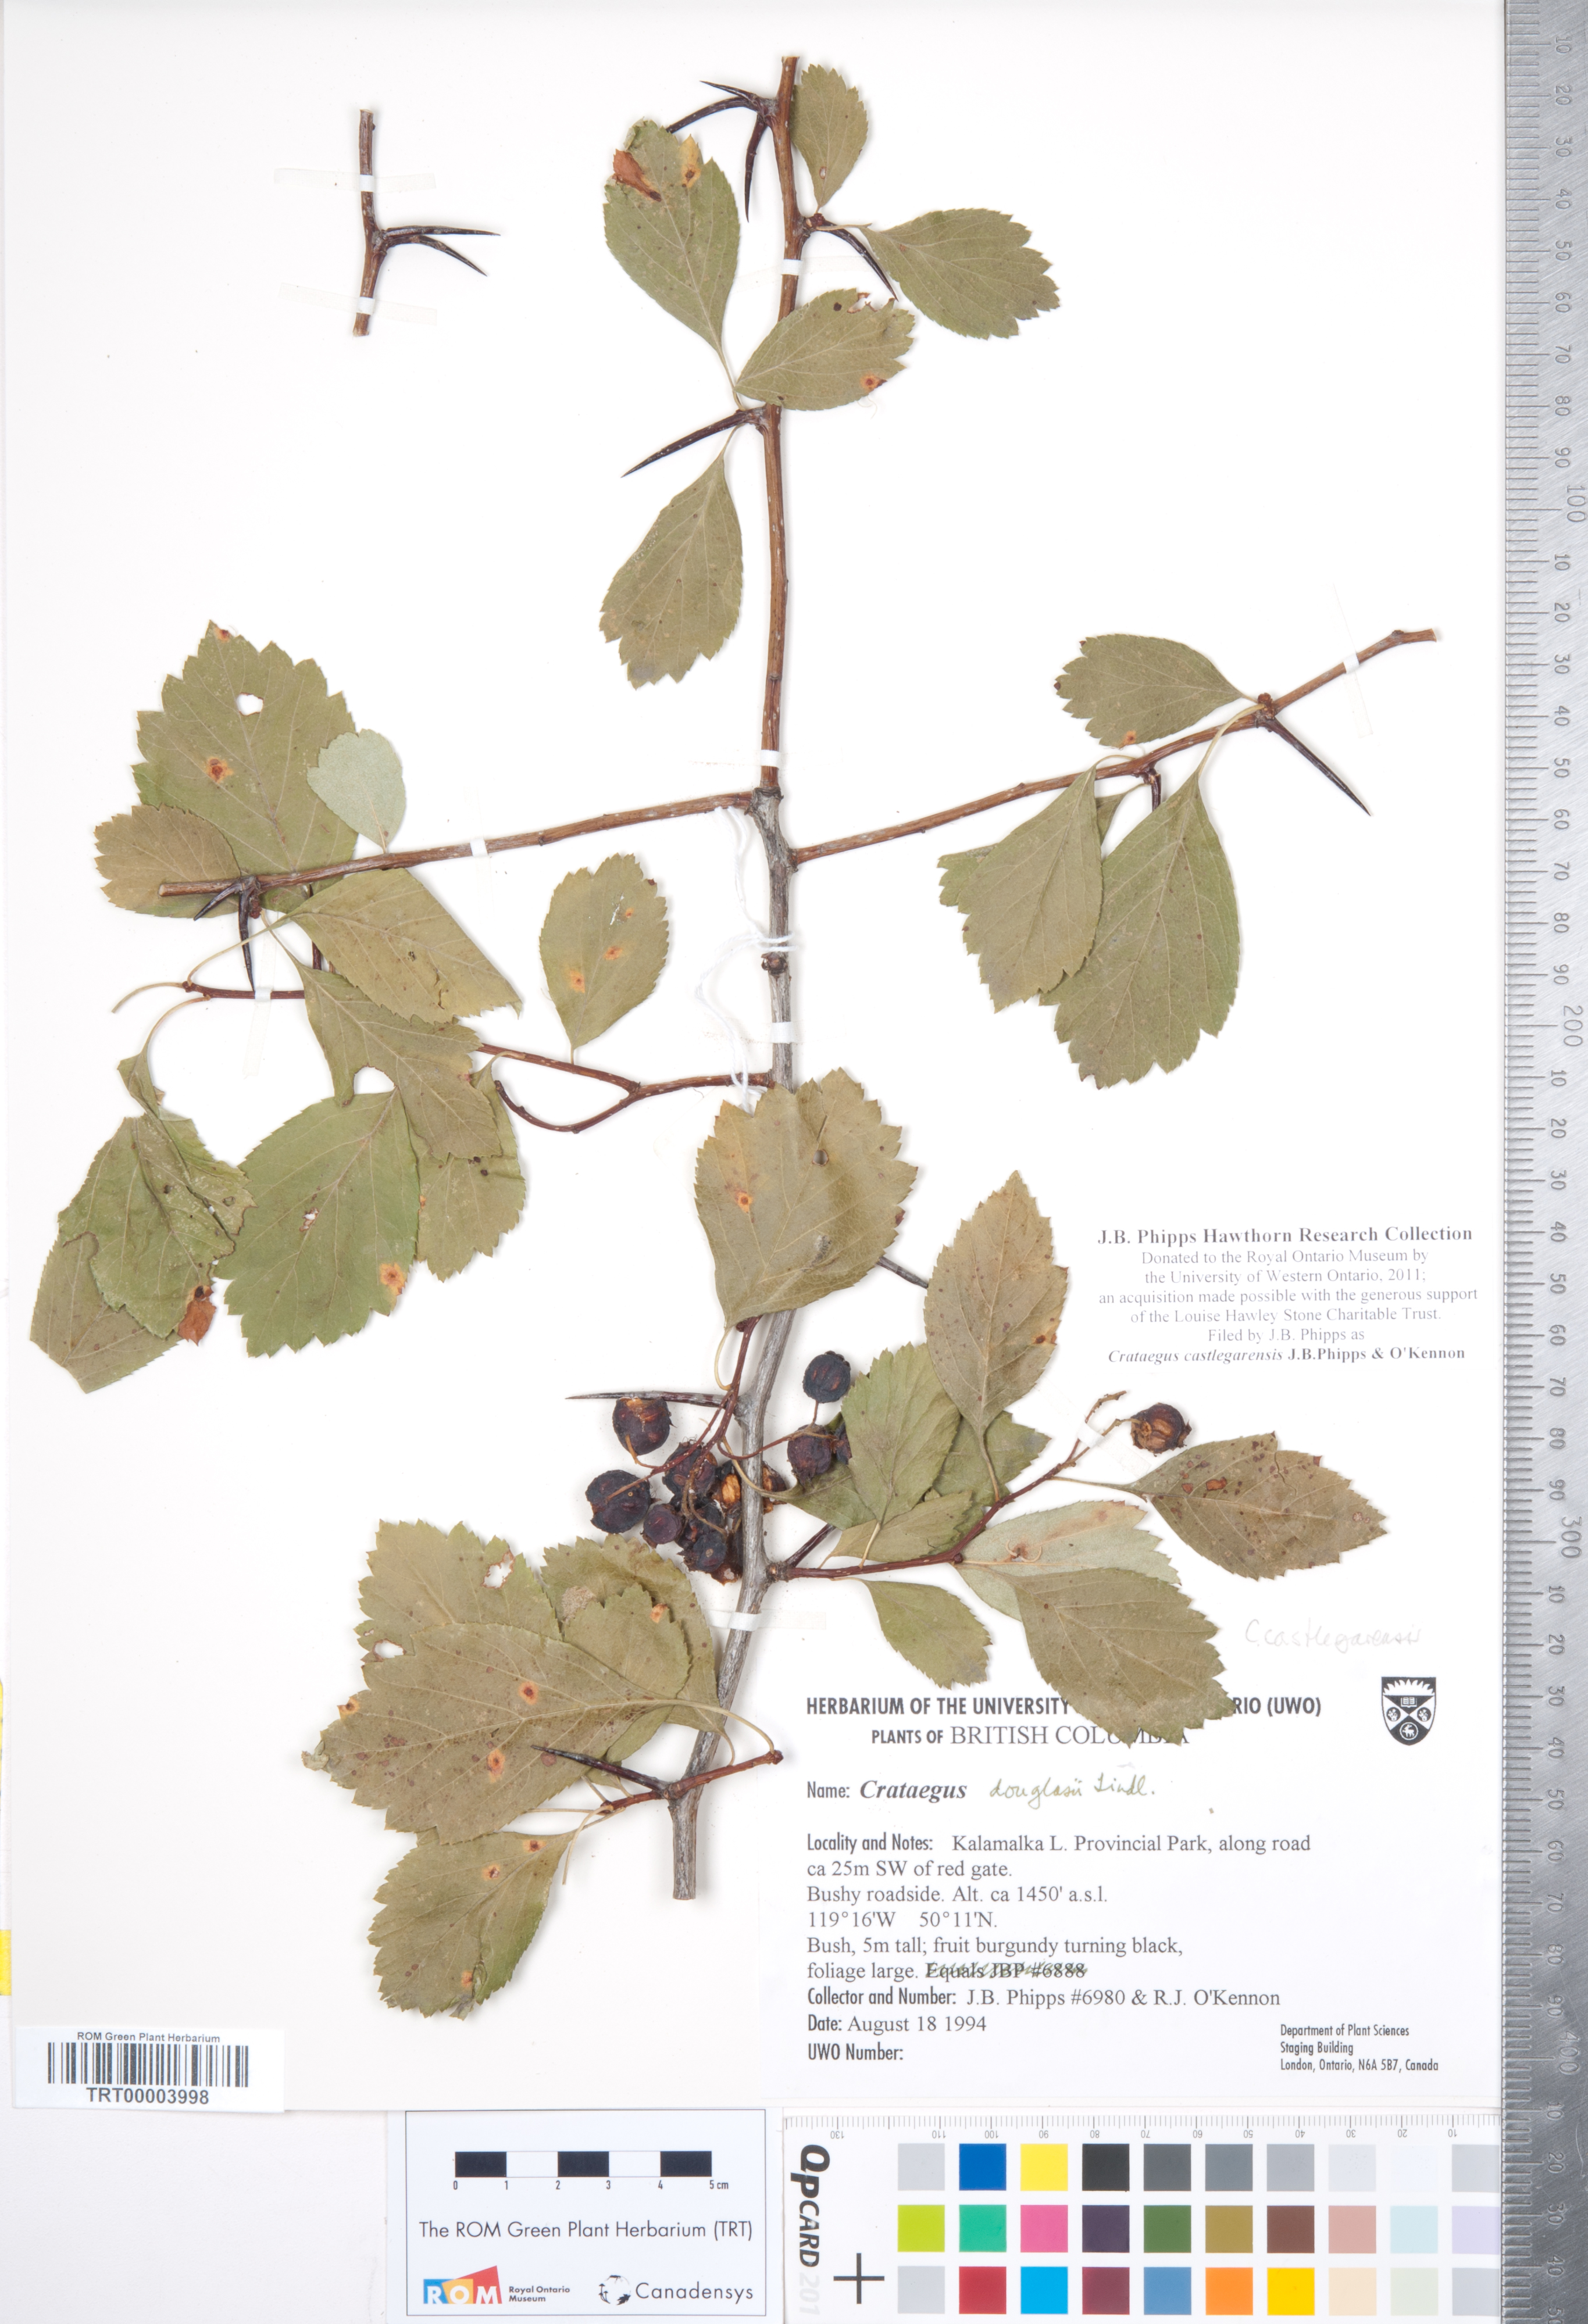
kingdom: Plantae
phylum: Tracheophyta
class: Magnoliopsida
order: Rosales
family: Rosaceae
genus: Crataegus
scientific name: Crataegus castlegarensis
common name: Castlegar hawthorn
